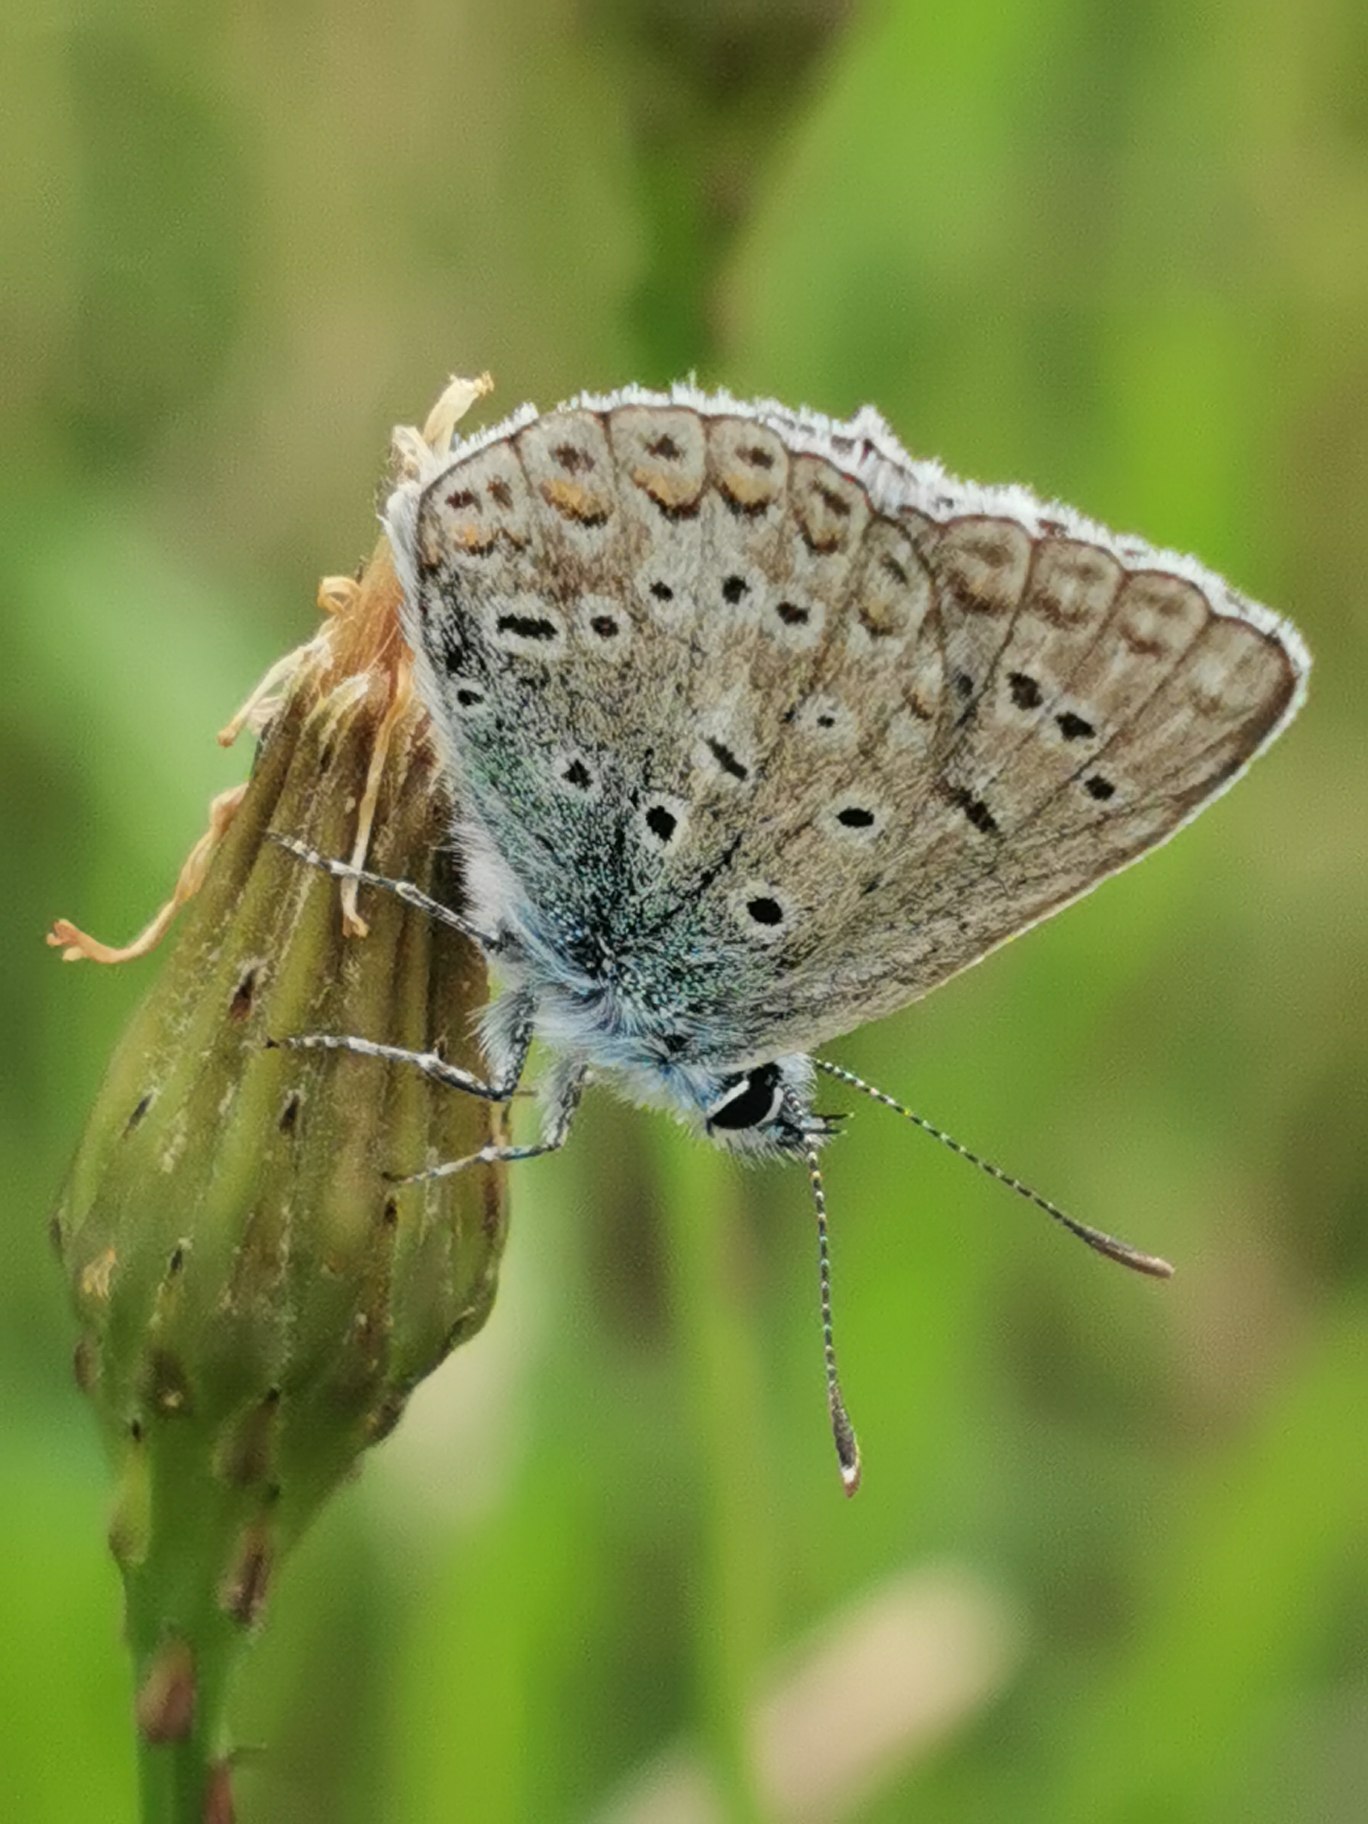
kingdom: Animalia
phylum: Arthropoda
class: Insecta
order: Lepidoptera
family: Lycaenidae
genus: Polyommatus
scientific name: Polyommatus icarus
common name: Almindelig blåfugl
